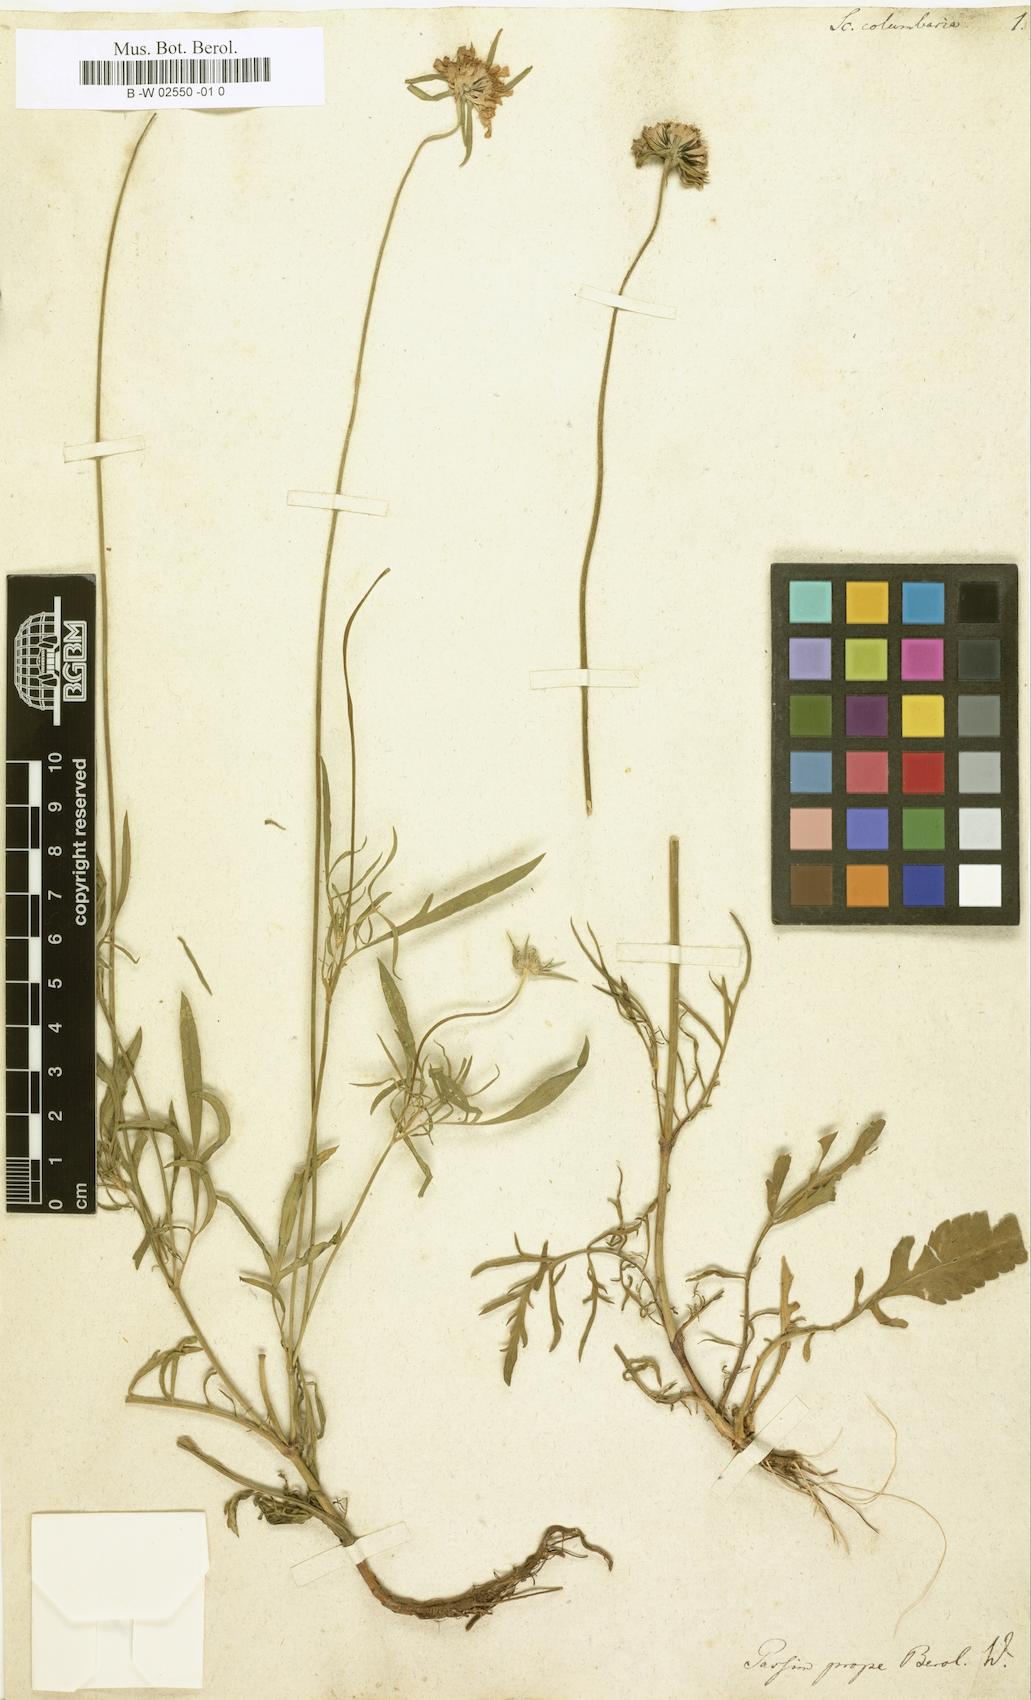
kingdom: Plantae
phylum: Tracheophyta
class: Magnoliopsida
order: Dipsacales
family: Caprifoliaceae
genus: Scabiosa
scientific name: Scabiosa columbaria
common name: Small scabious
